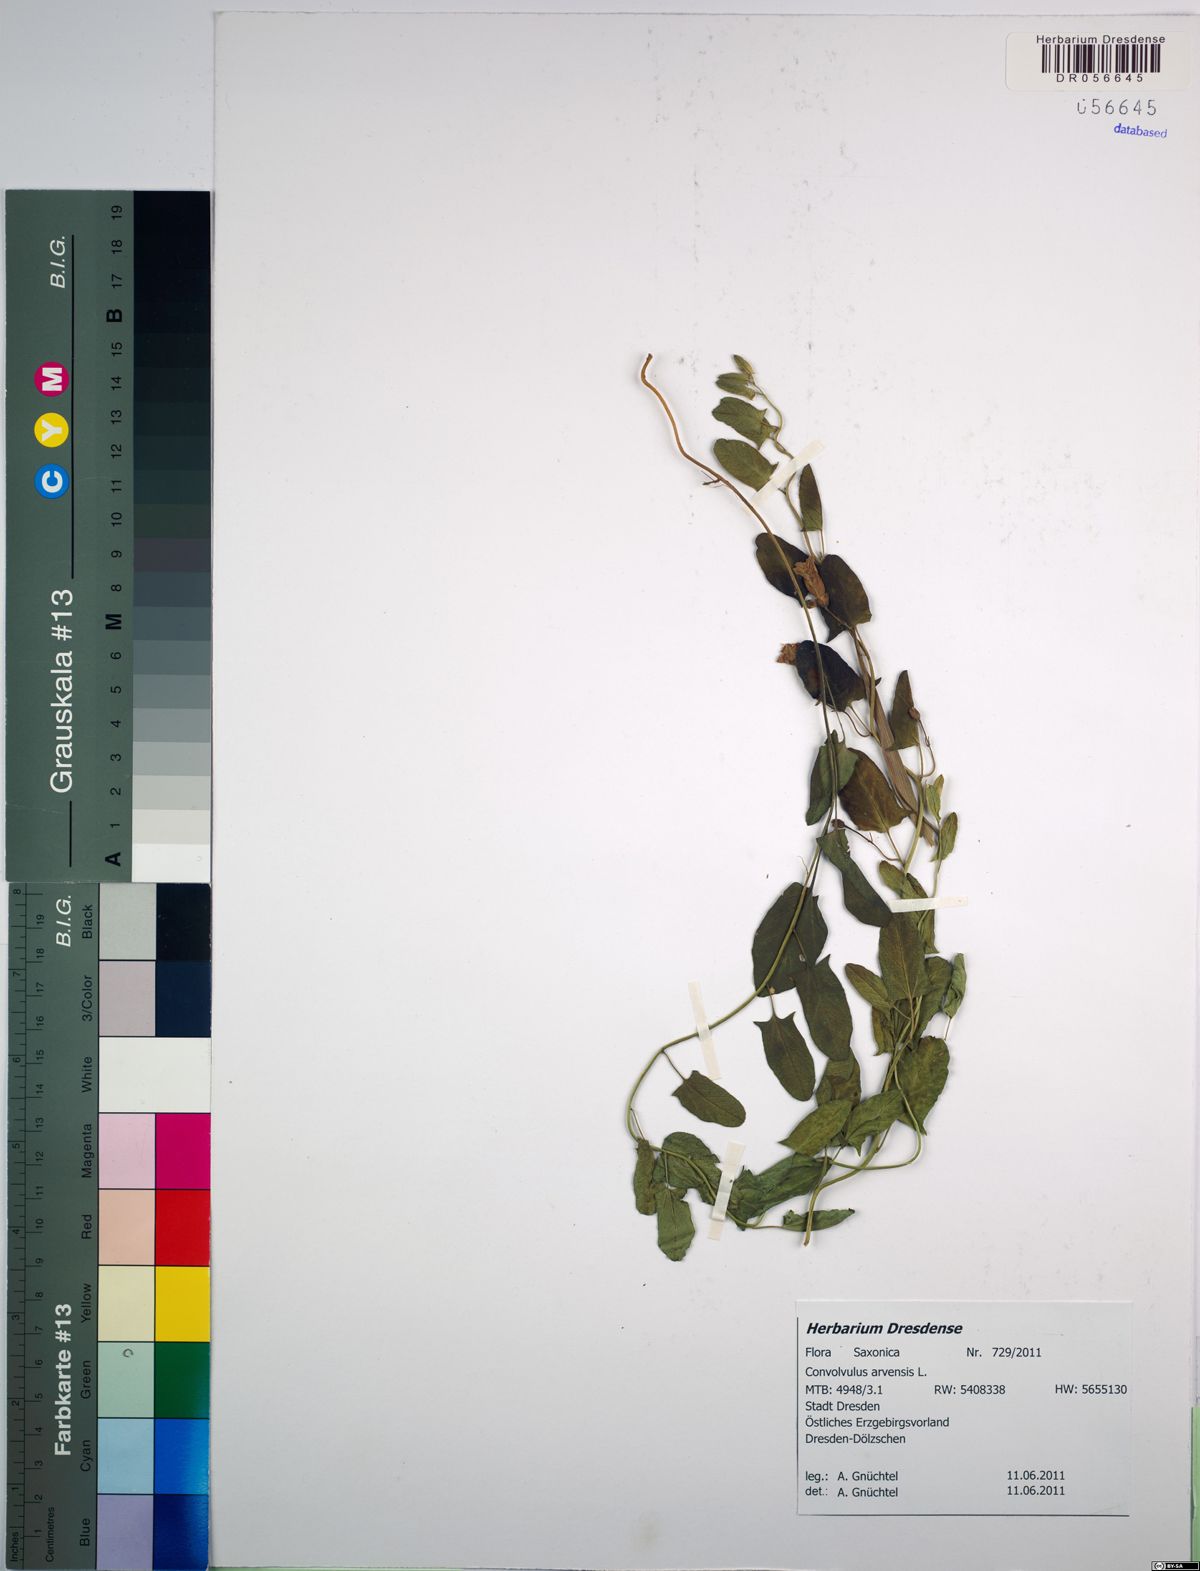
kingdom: Plantae
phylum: Tracheophyta
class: Magnoliopsida
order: Solanales
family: Convolvulaceae
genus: Convolvulus
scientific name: Convolvulus arvensis
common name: Field bindweed
